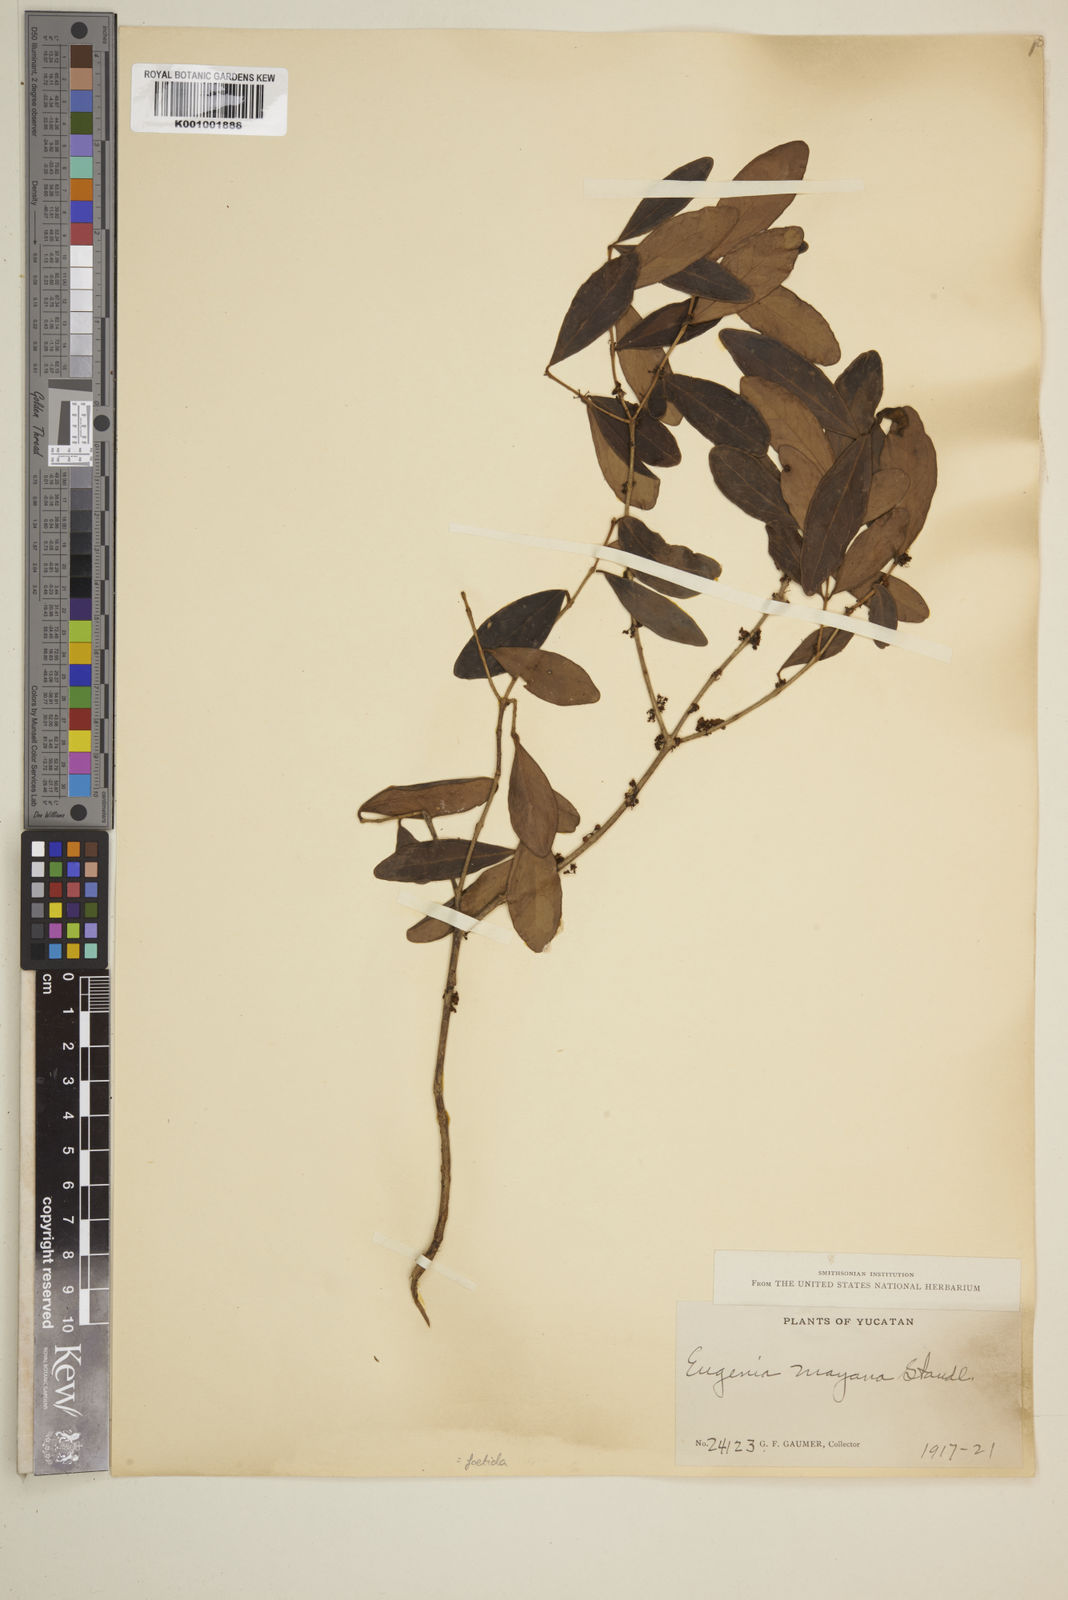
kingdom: Plantae
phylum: Tracheophyta
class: Magnoliopsida
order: Myrtales
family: Myrtaceae
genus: Eugenia
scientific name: Eugenia foetida
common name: White wattling
